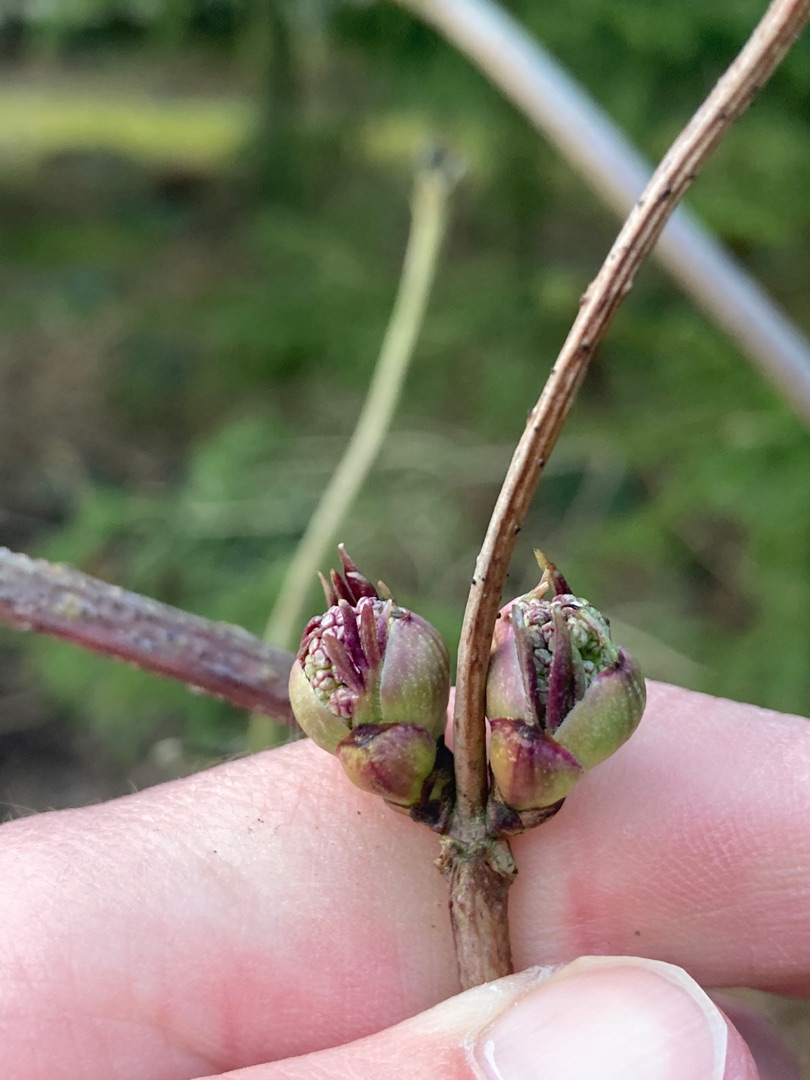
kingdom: Plantae
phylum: Tracheophyta
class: Magnoliopsida
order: Dipsacales
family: Viburnaceae
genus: Sambucus
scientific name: Sambucus racemosa
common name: Drue-hyld
